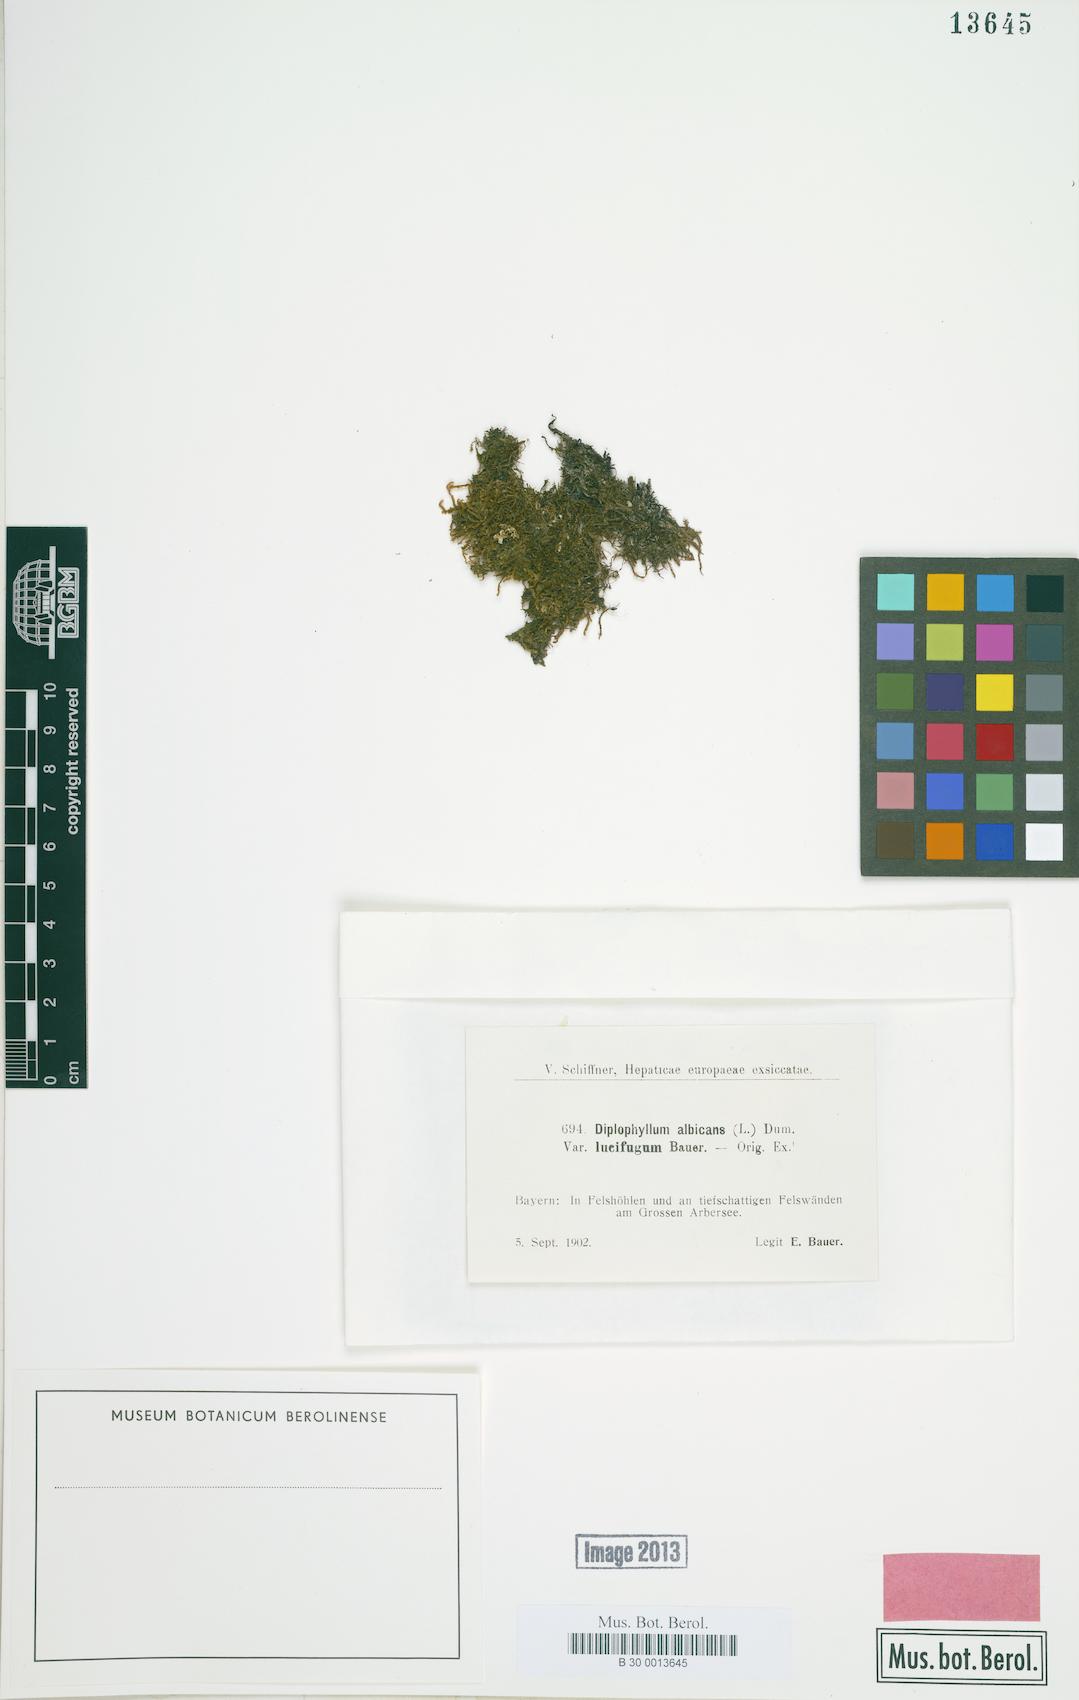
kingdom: Plantae
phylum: Marchantiophyta
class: Jungermanniopsida
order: Jungermanniales
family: Scapaniaceae
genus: Diplophyllum
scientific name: Diplophyllum albicans
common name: White earwort
